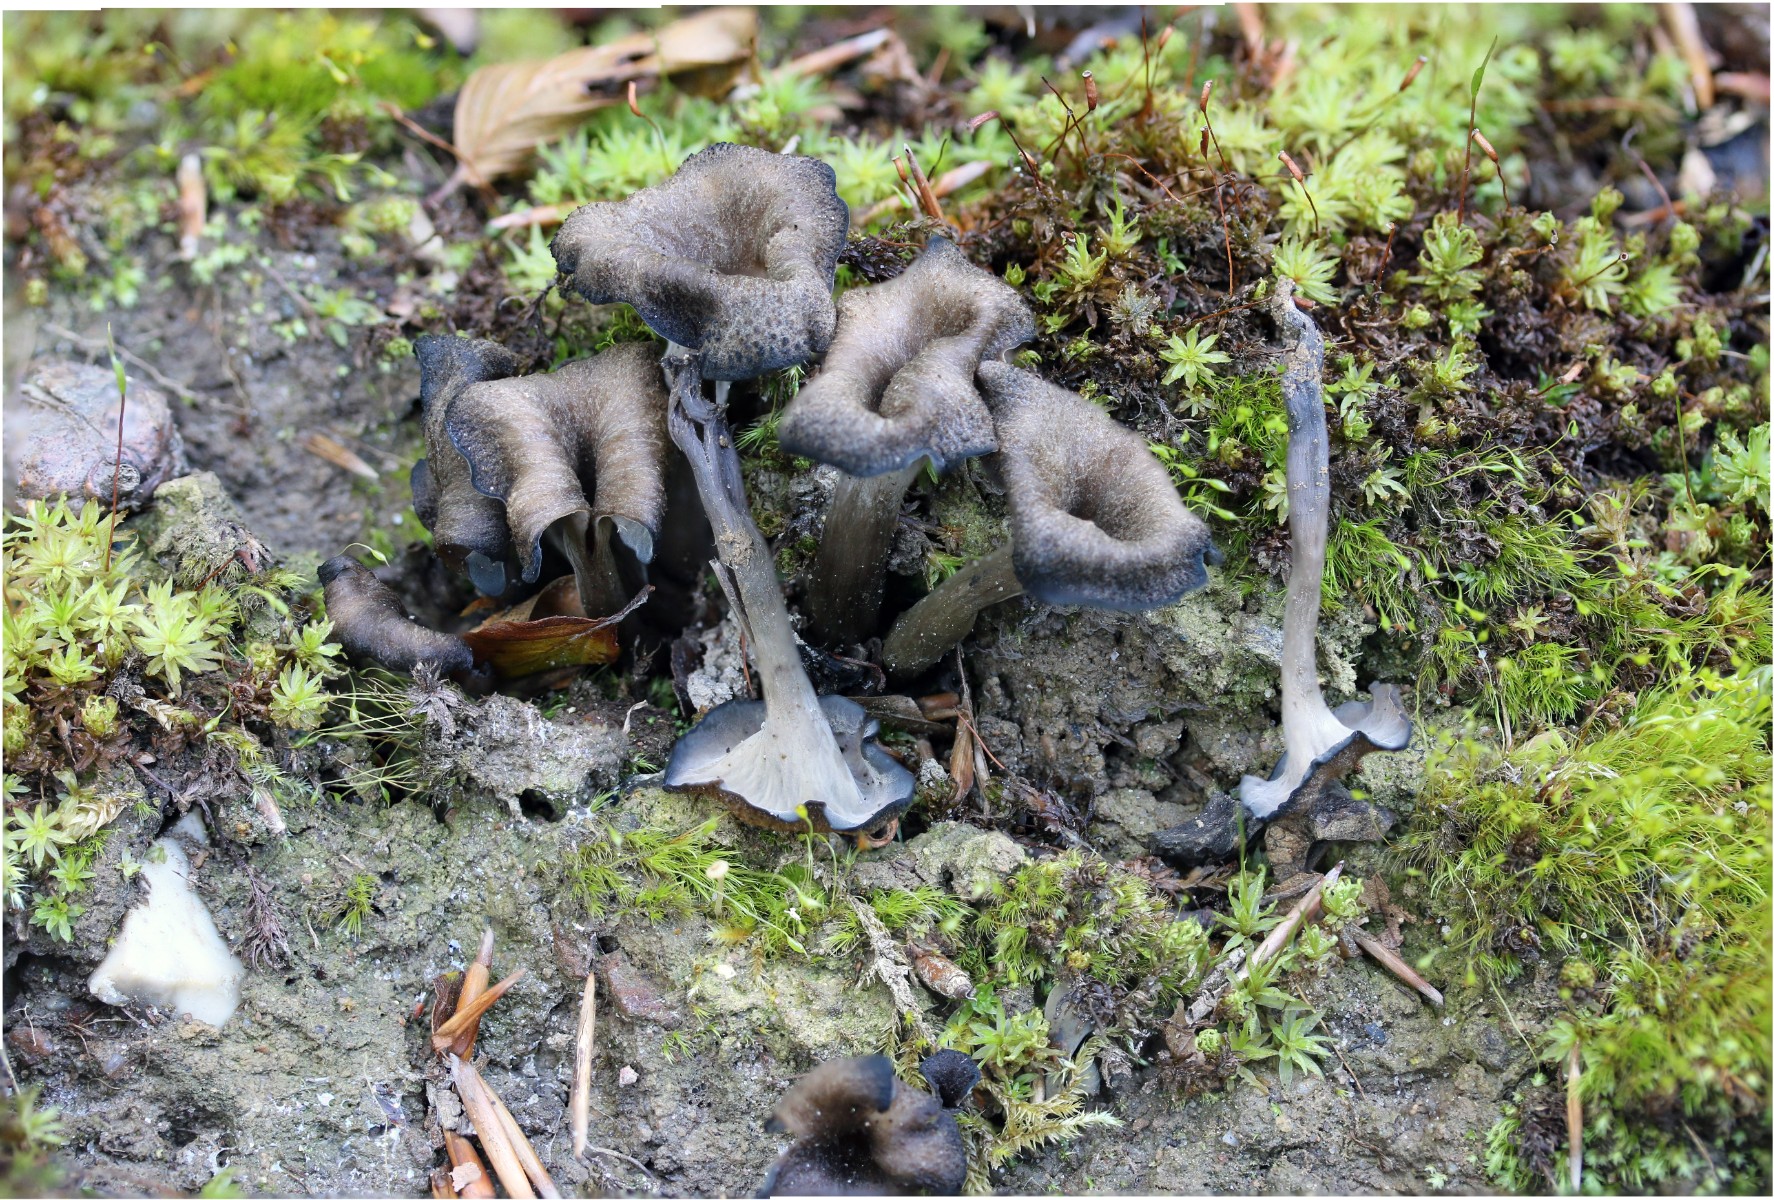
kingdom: Fungi
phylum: Basidiomycota
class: Agaricomycetes
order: Cantharellales
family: Hydnaceae
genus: Craterellus
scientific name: Craterellus cornucopioides
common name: trompetsvamp
